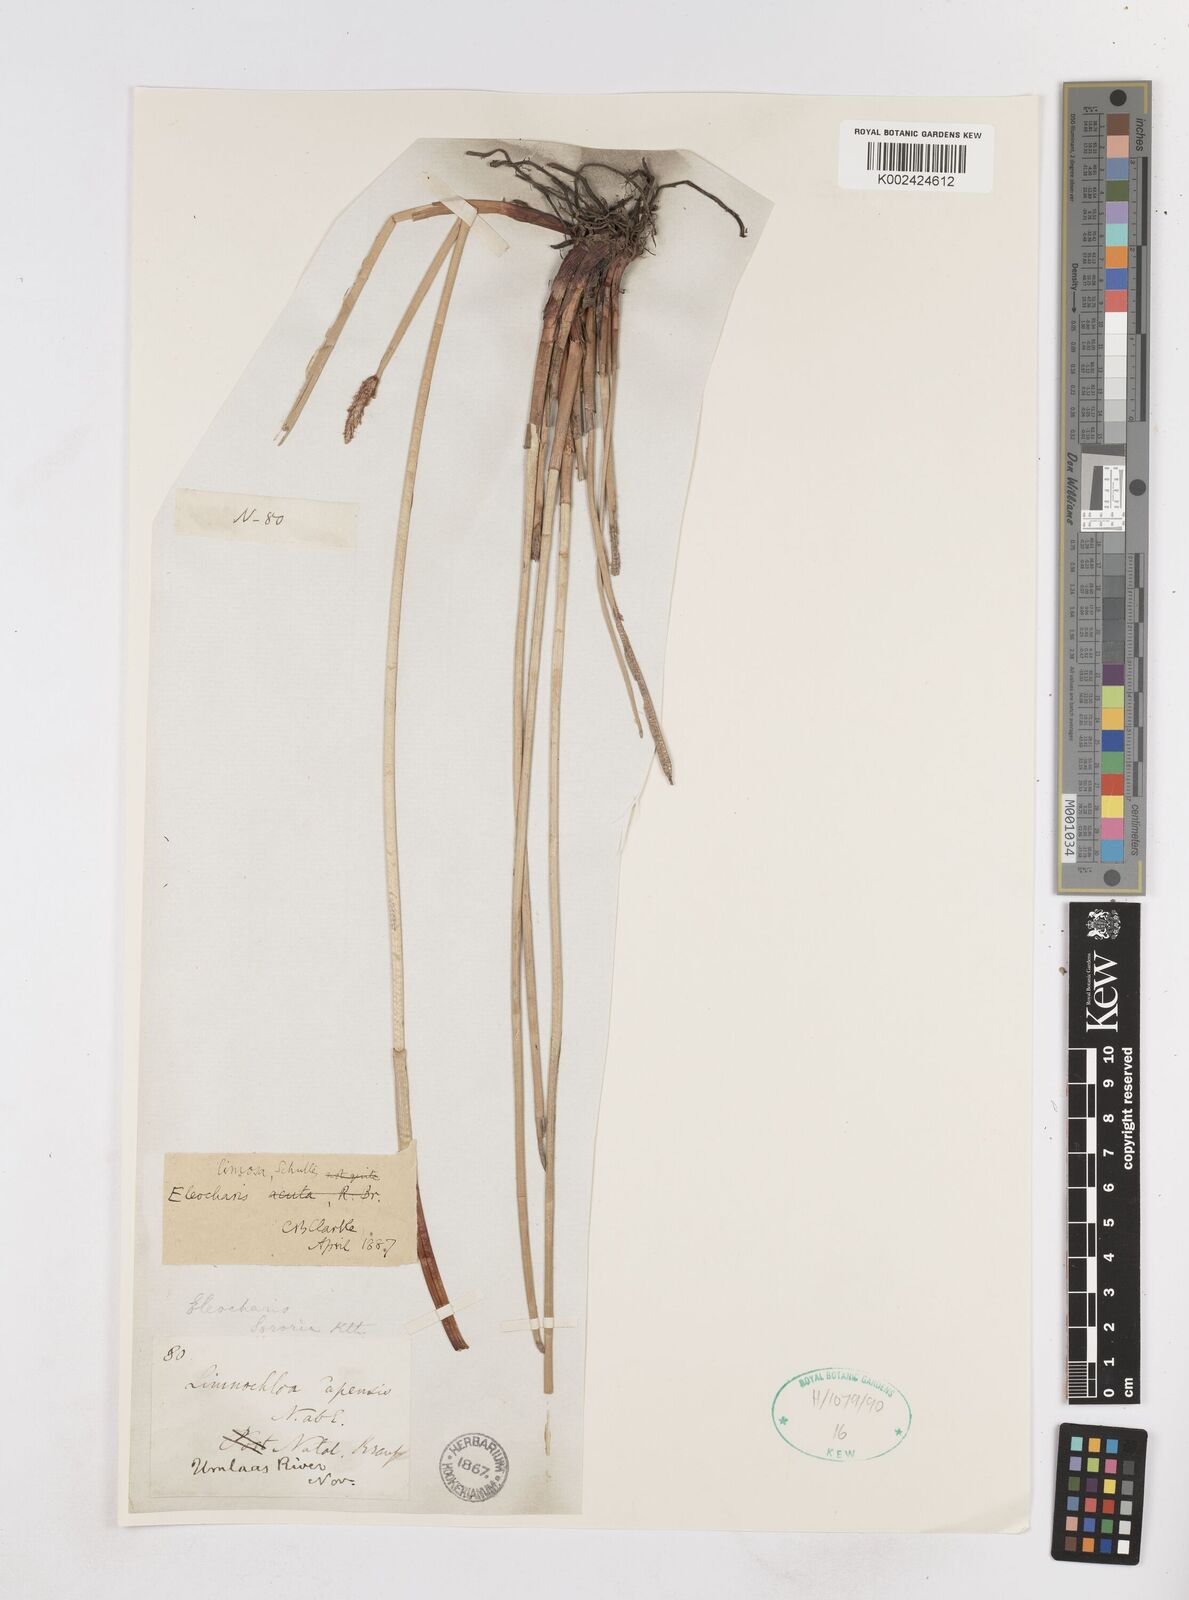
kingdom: Plantae
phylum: Tracheophyta
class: Liliopsida
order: Poales
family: Cyperaceae
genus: Eleocharis
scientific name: Eleocharis limosa
